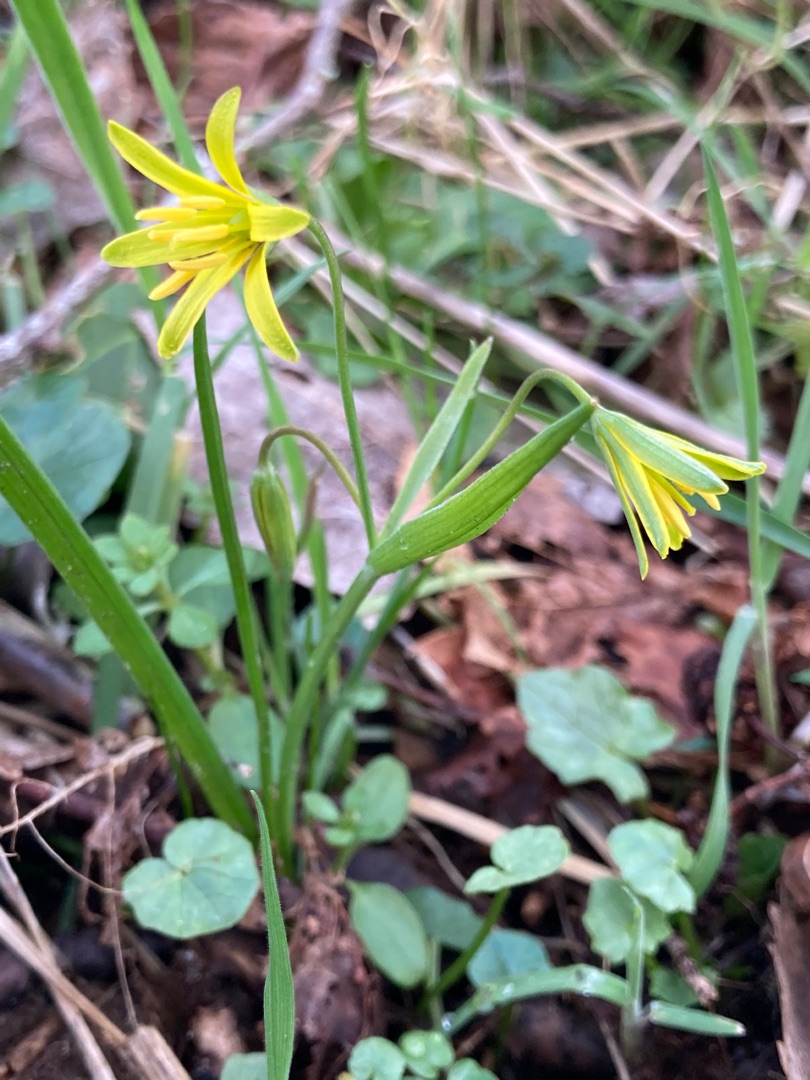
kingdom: Plantae
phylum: Tracheophyta
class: Liliopsida
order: Liliales
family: Liliaceae
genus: Gagea
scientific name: Gagea lutea
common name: Almindelig guldstjerne
